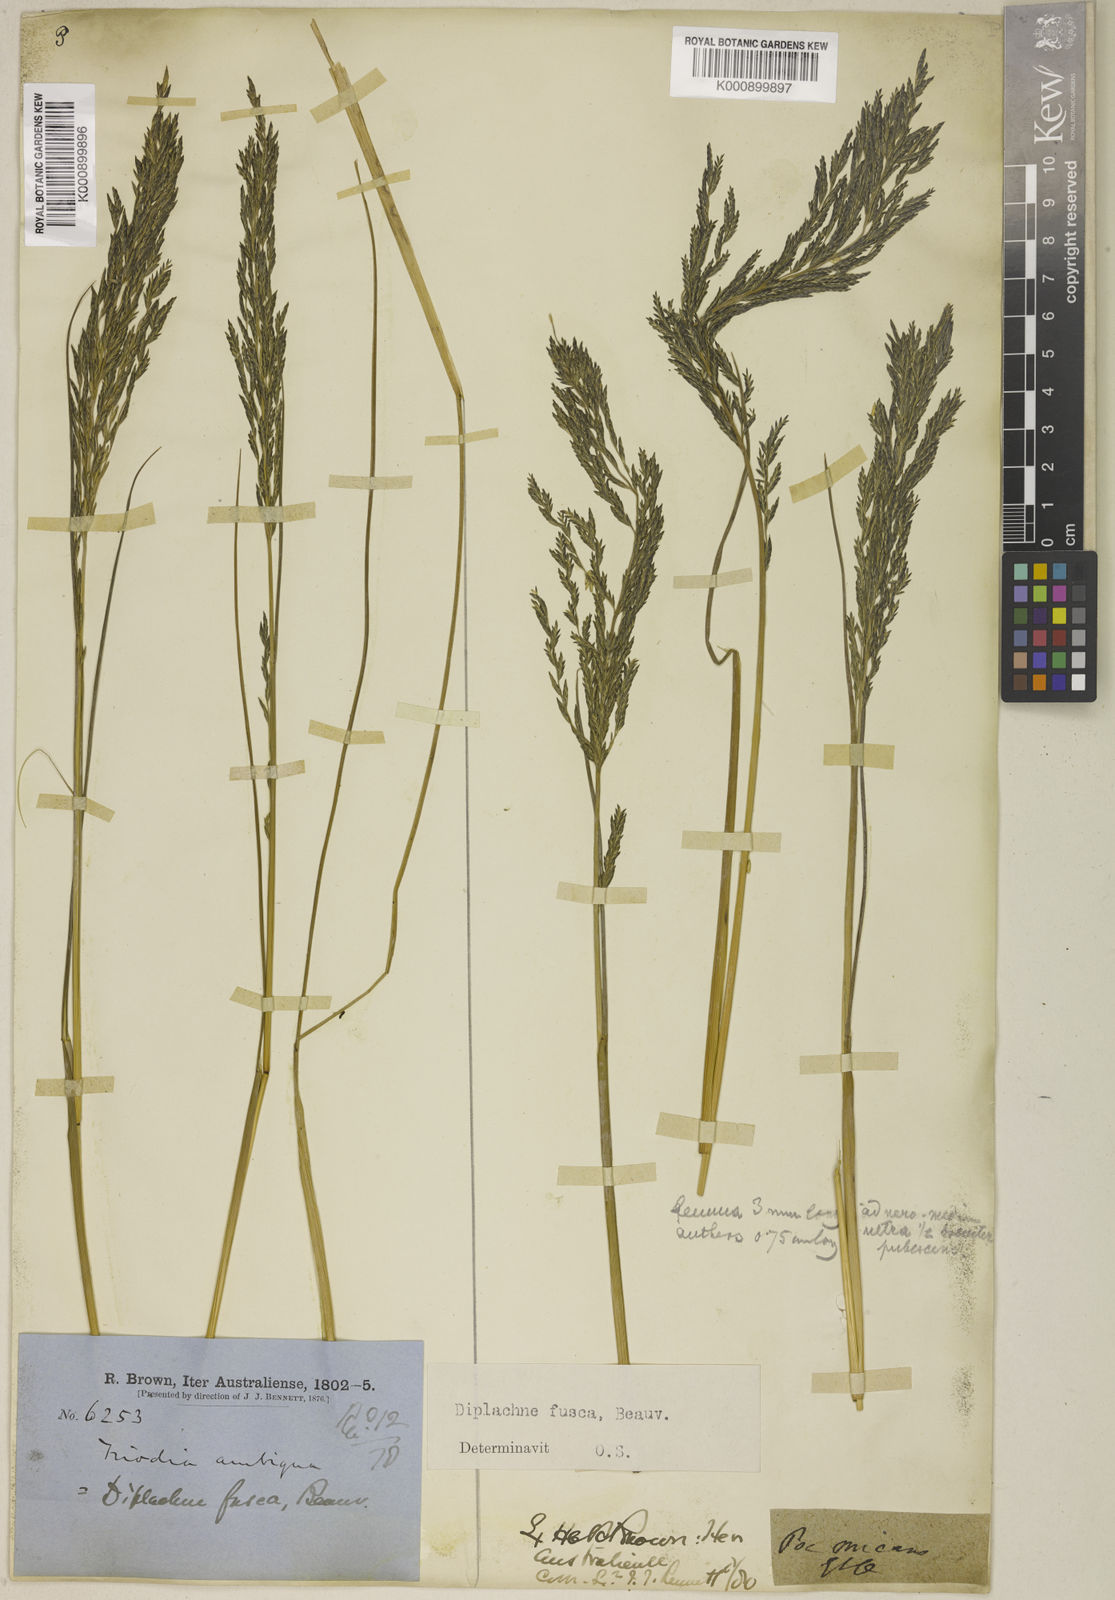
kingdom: Plantae
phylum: Tracheophyta
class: Liliopsida
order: Poales
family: Poaceae
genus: Diplachne
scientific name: Diplachne fusca
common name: Brown beetle grass
